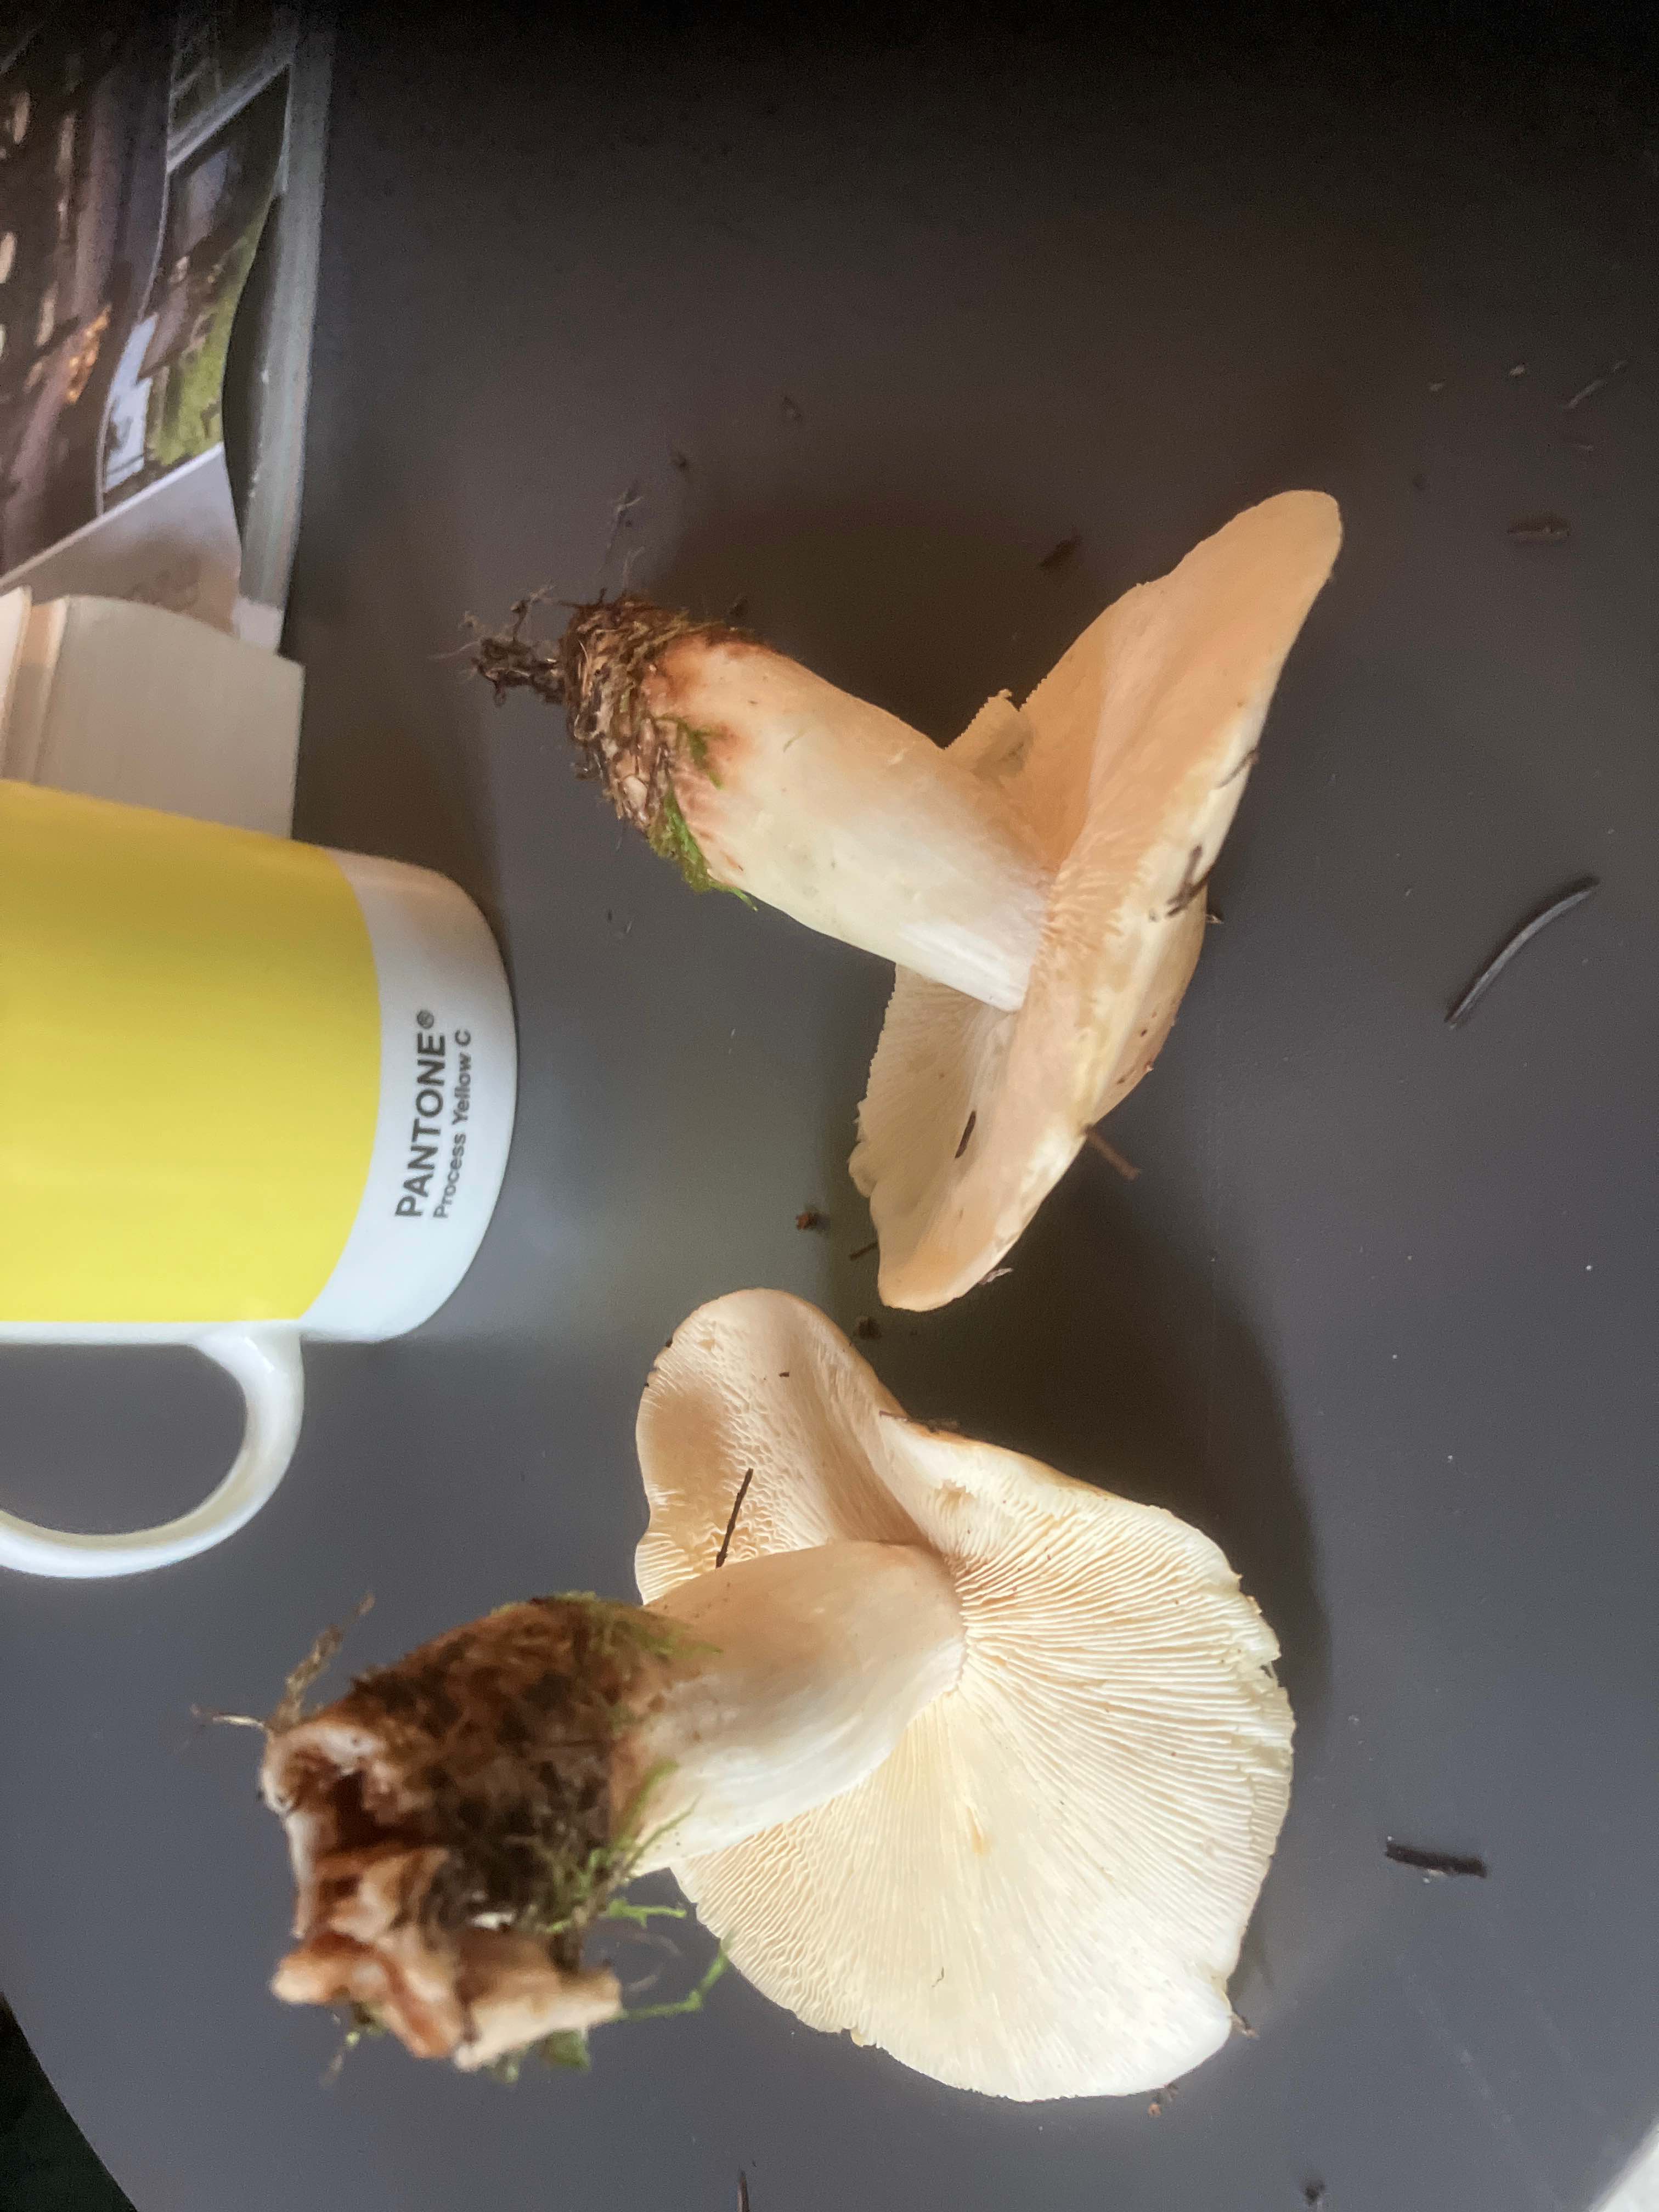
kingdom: Fungi
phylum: Basidiomycota
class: Agaricomycetes
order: Agaricales
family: Omphalotaceae
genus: Rhodocollybia
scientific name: Rhodocollybia maculata
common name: plettet fladhat
